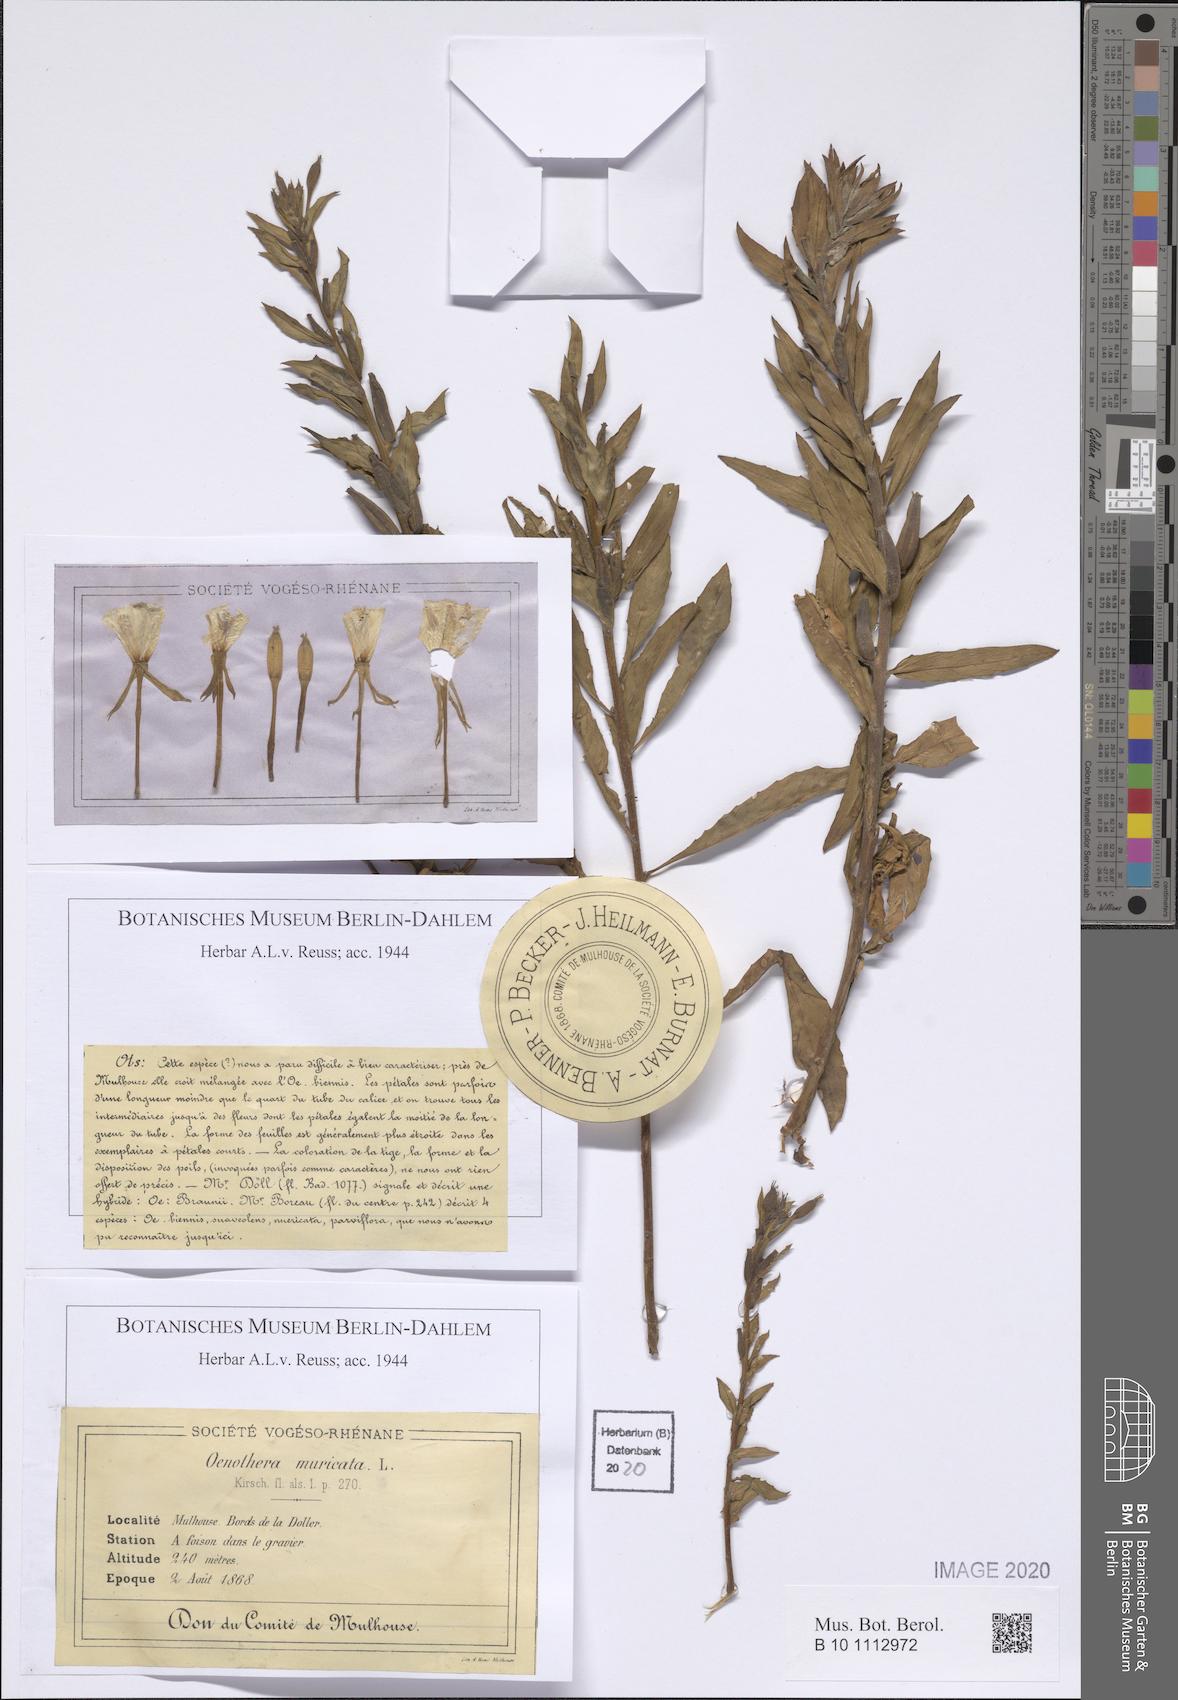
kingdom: Plantae
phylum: Tracheophyta
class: Magnoliopsida
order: Myrtales
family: Onagraceae
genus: Oenothera
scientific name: Oenothera biennis
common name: Common evening-primrose
